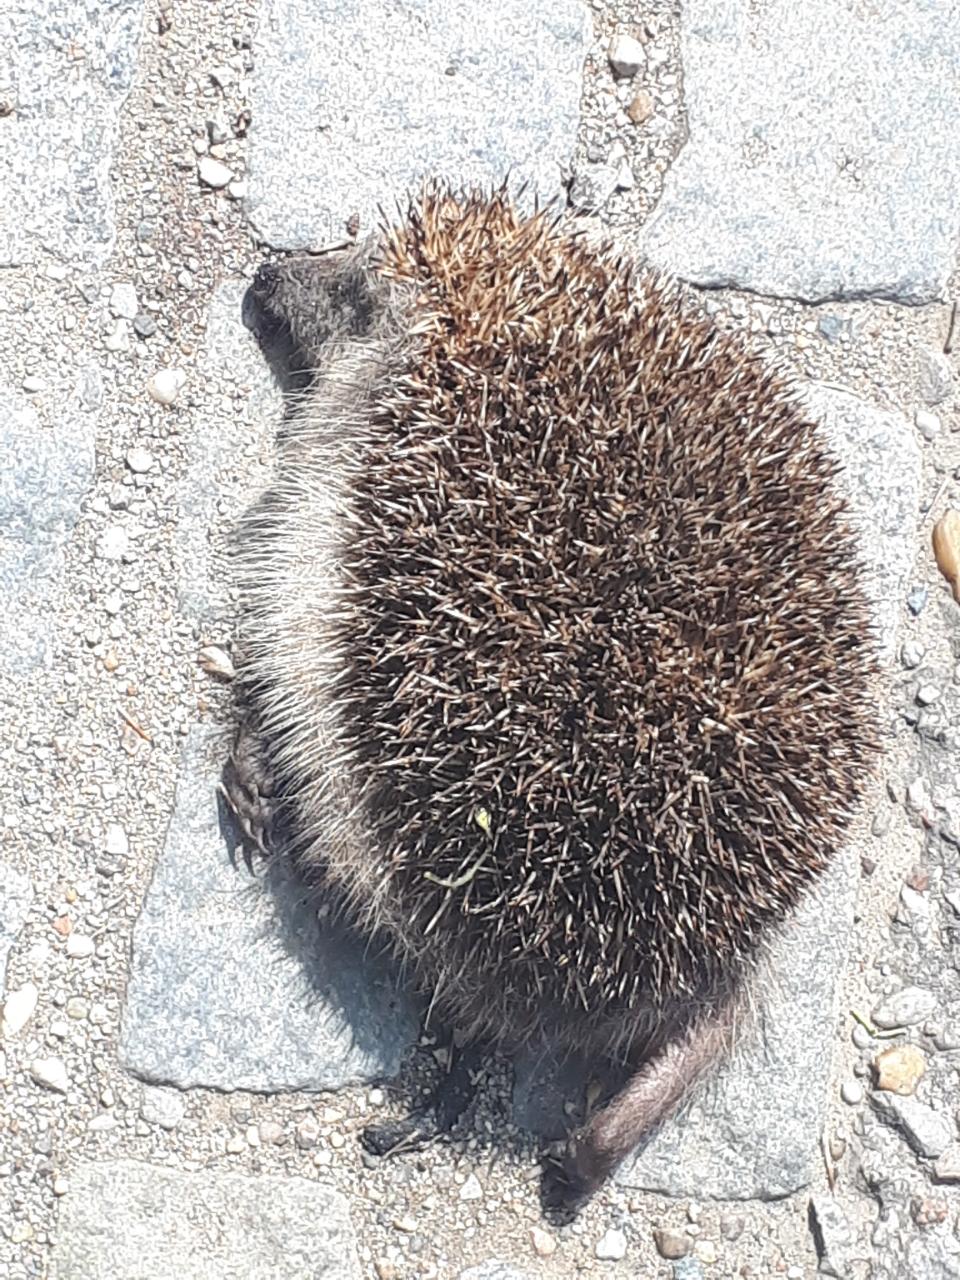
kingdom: Animalia
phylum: Chordata
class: Mammalia
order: Erinaceomorpha
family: Erinaceidae
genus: Erinaceus
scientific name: Erinaceus
